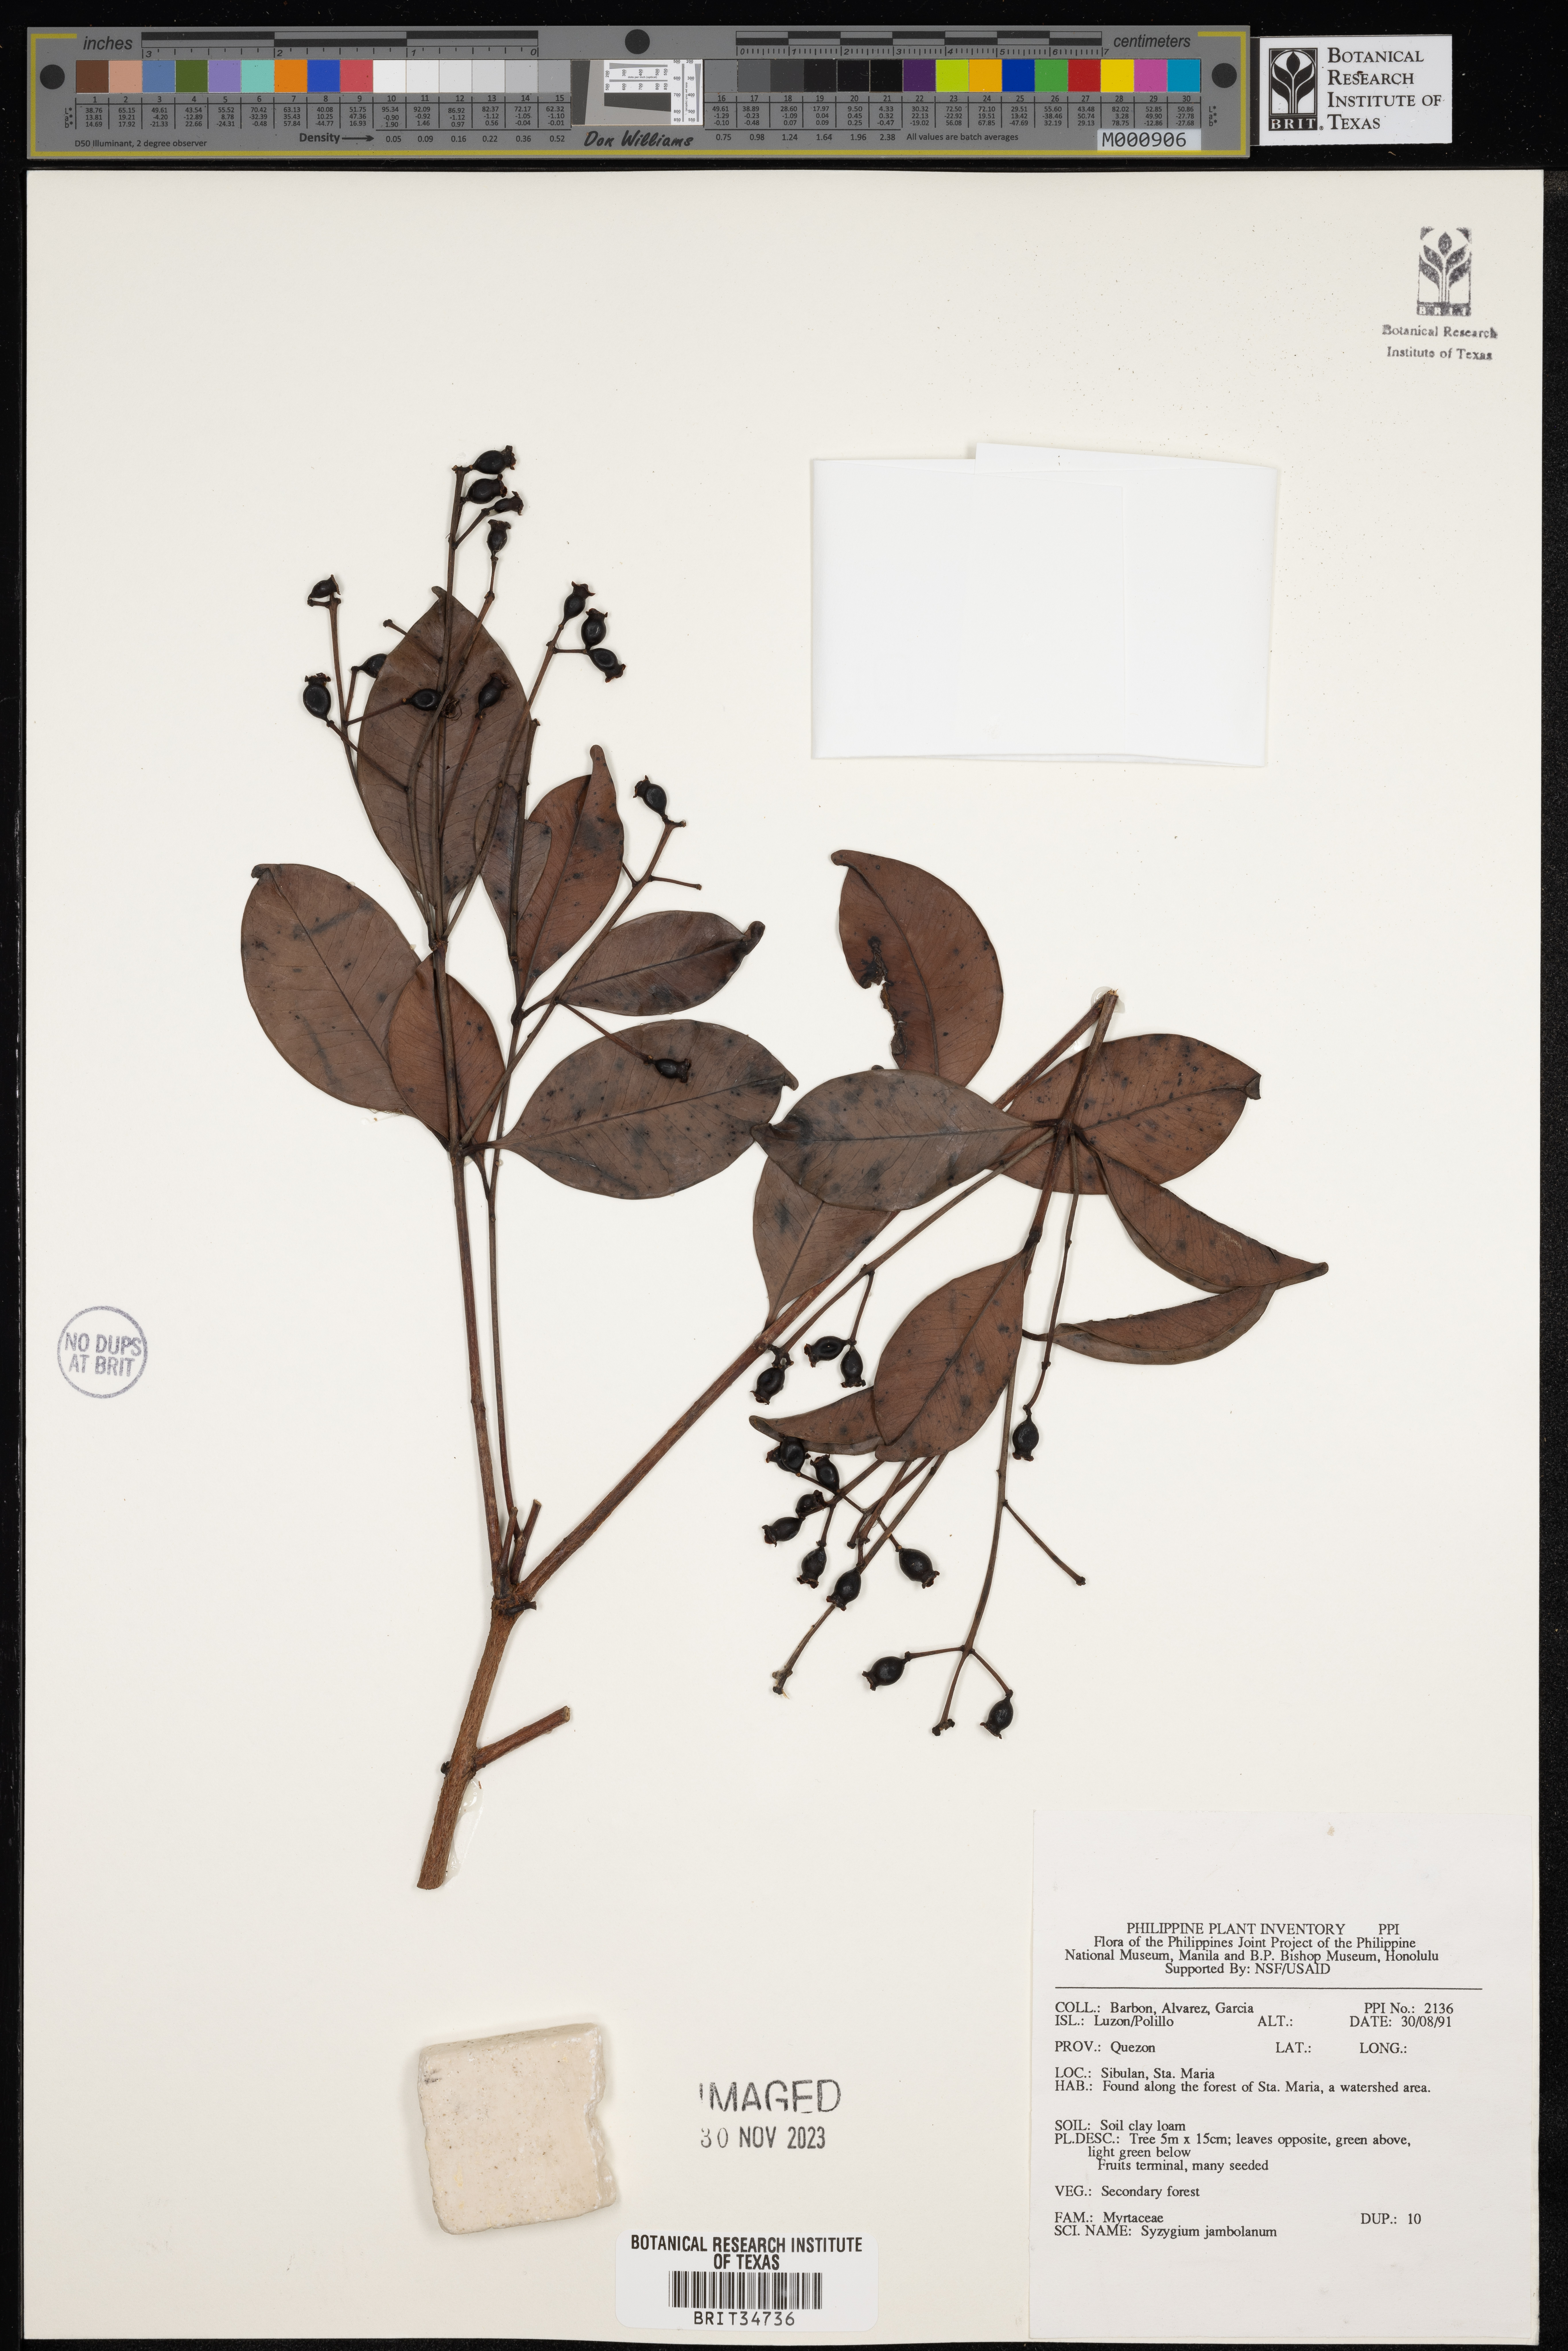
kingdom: Plantae
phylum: Tracheophyta
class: Magnoliopsida
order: Myrtales
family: Myrtaceae
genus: Syzygium
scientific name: Syzygium cumini
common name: Java plum
